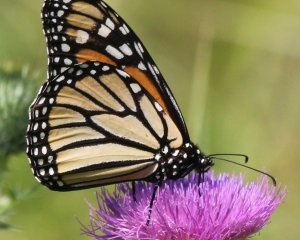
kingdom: Animalia
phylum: Arthropoda
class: Insecta
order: Lepidoptera
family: Nymphalidae
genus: Danaus
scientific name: Danaus plexippus
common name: Monarch
